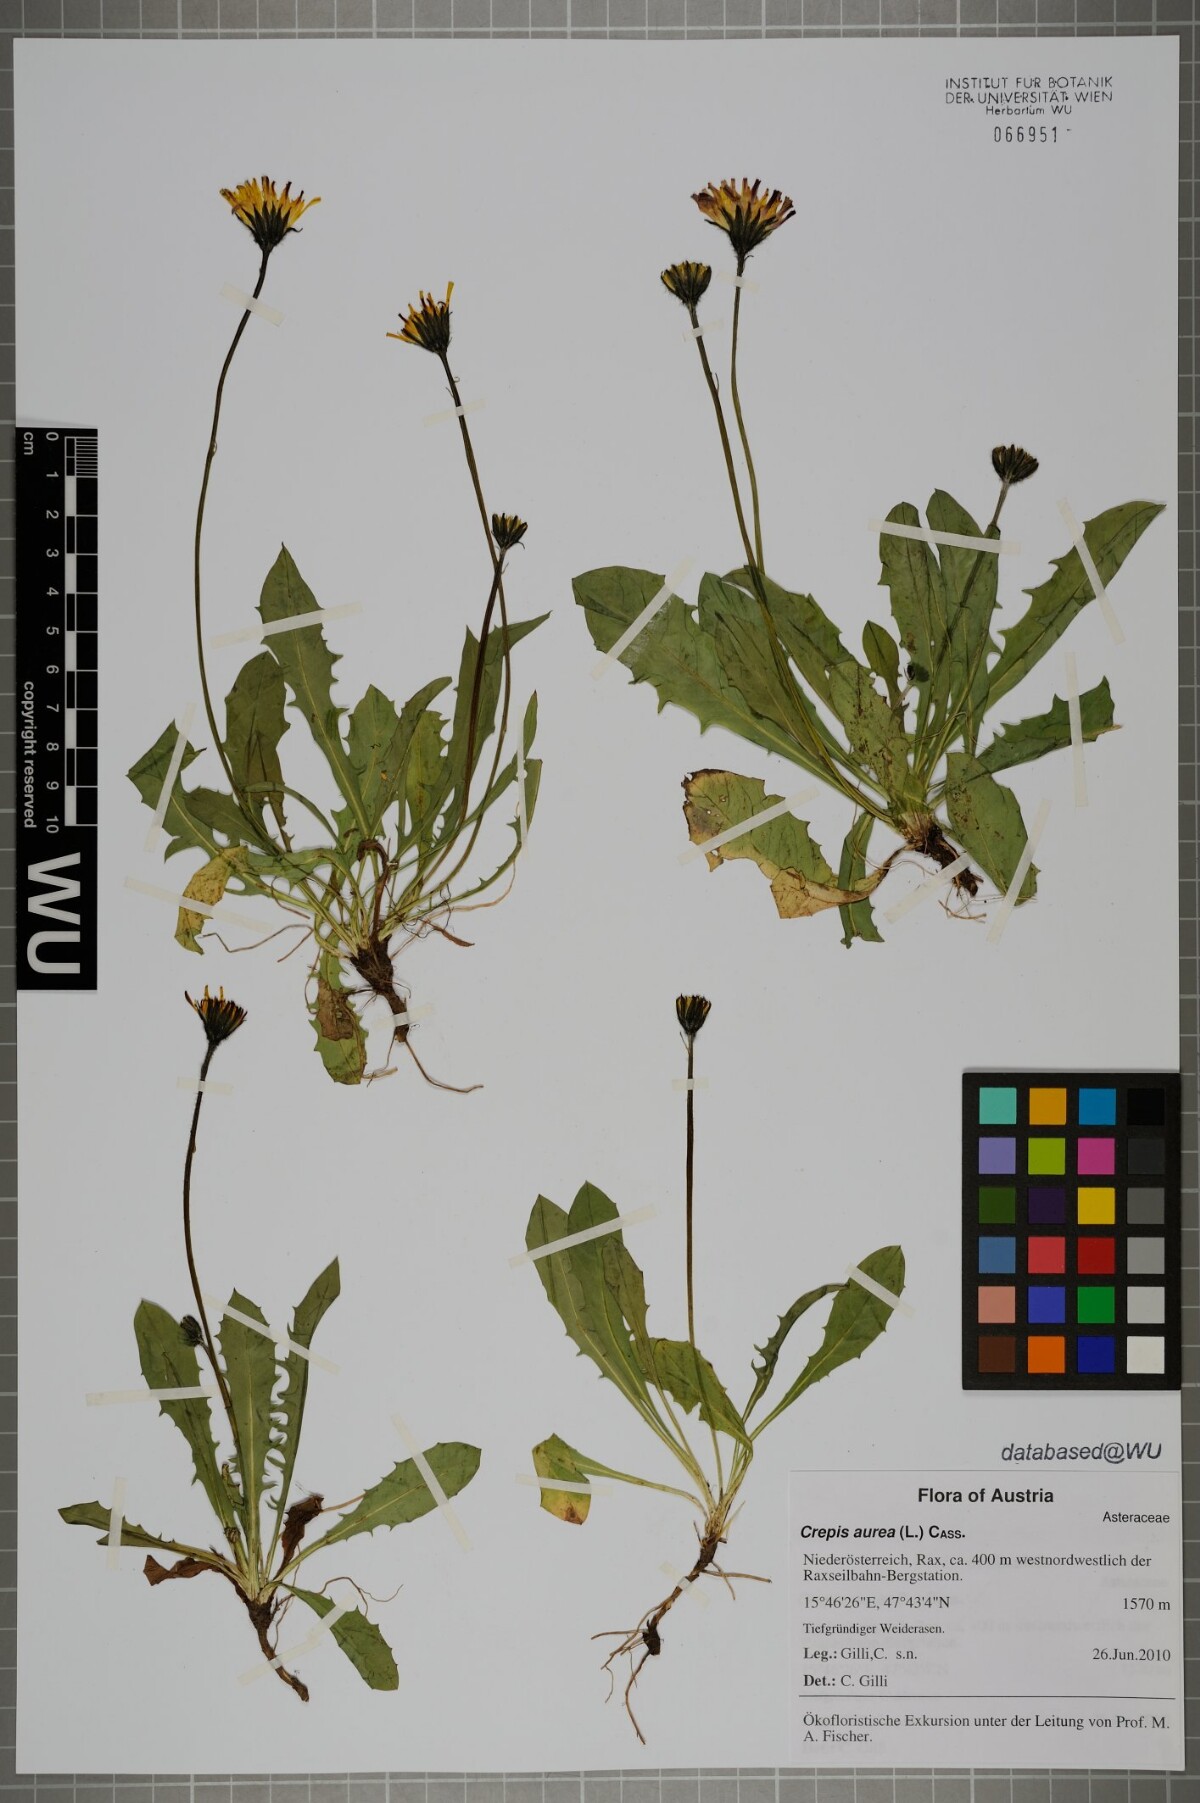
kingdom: Plantae
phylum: Tracheophyta
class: Magnoliopsida
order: Asterales
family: Asteraceae
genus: Crepis
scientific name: Crepis aurea
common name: Golden hawk's-beard
